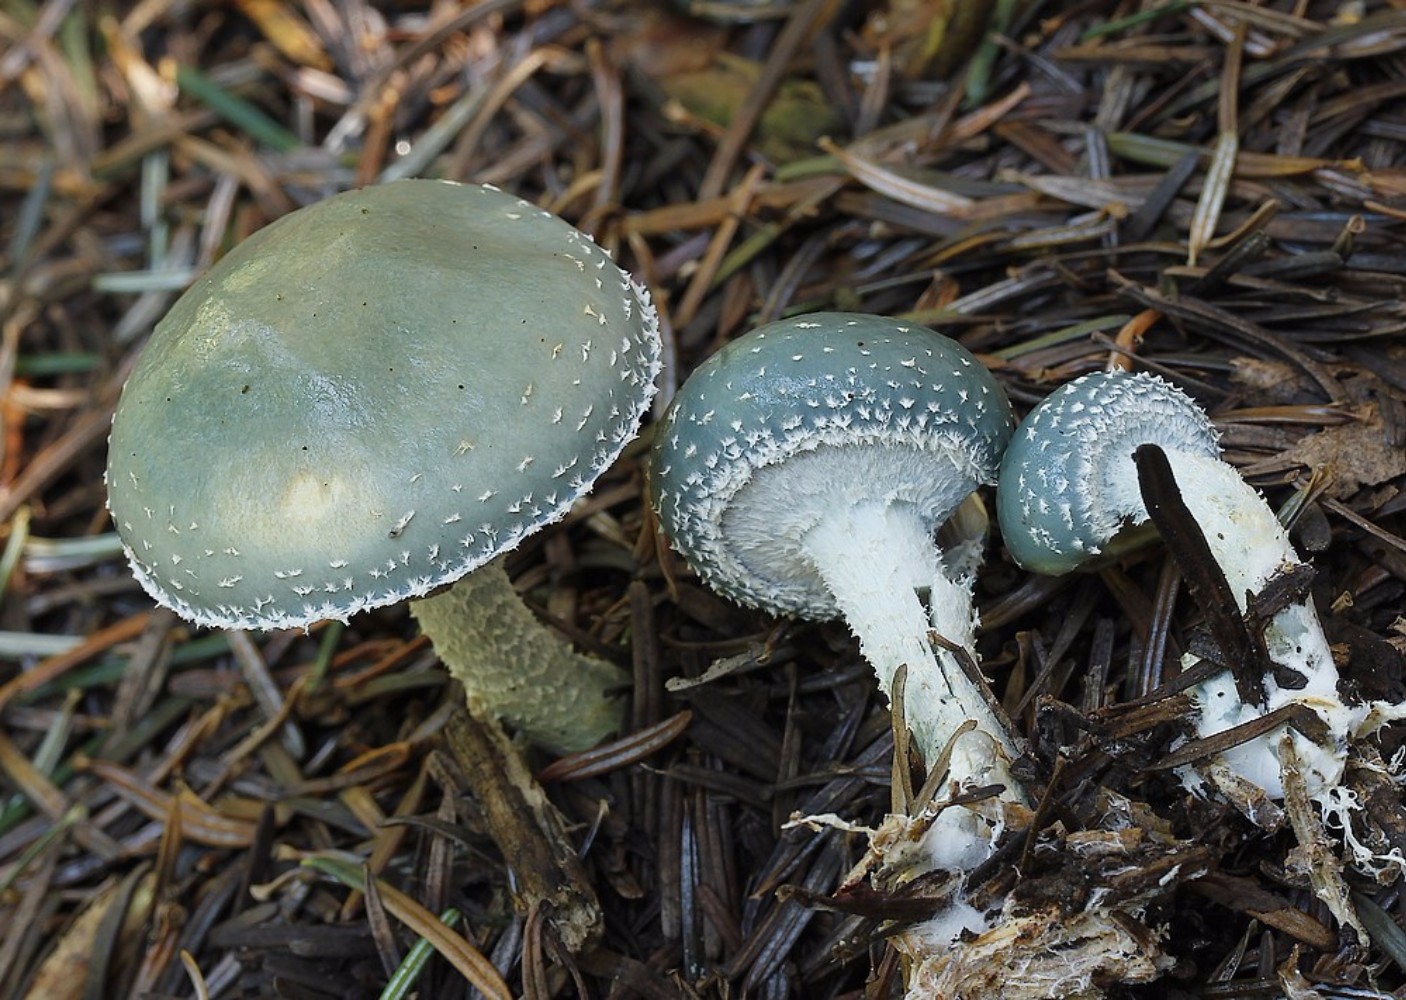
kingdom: Fungi
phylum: Basidiomycota
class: Agaricomycetes
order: Agaricales
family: Strophariaceae
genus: Stropharia
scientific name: Stropharia aeruginosa
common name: spanskgrøn bredblad
